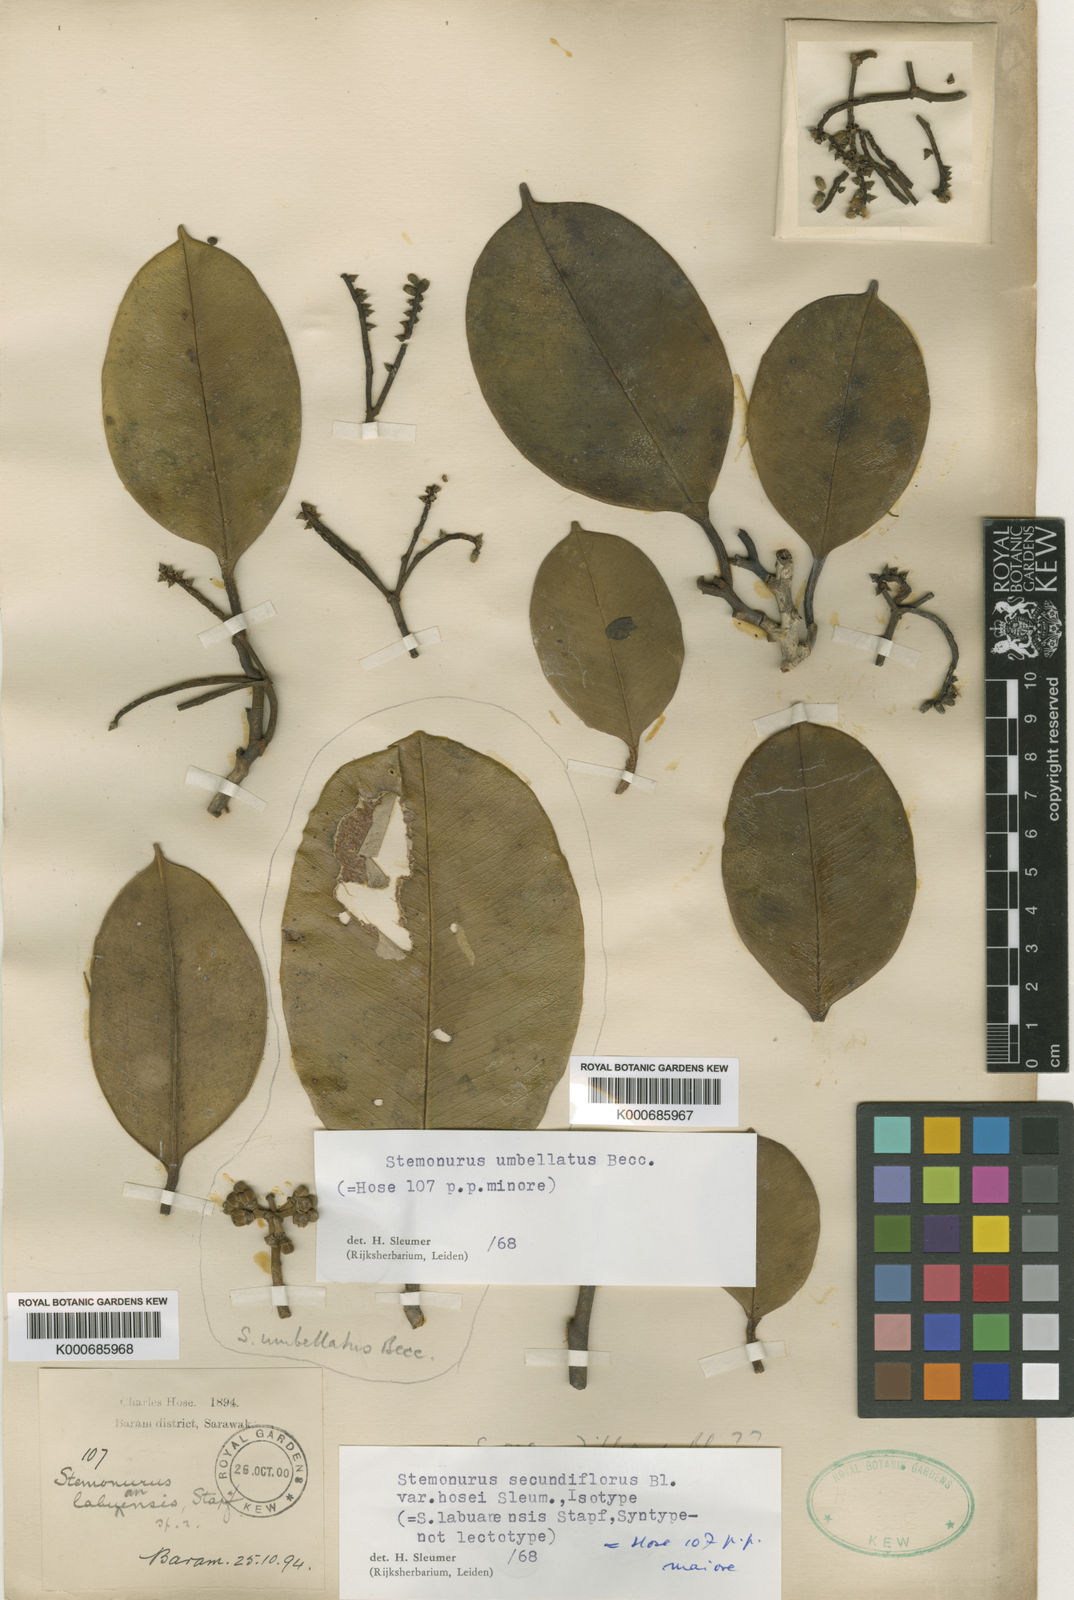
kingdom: Plantae
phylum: Tracheophyta
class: Magnoliopsida
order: Cardiopteridales
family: Stemonuraceae
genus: Stemonurus
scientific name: Stemonurus secundiflorus
